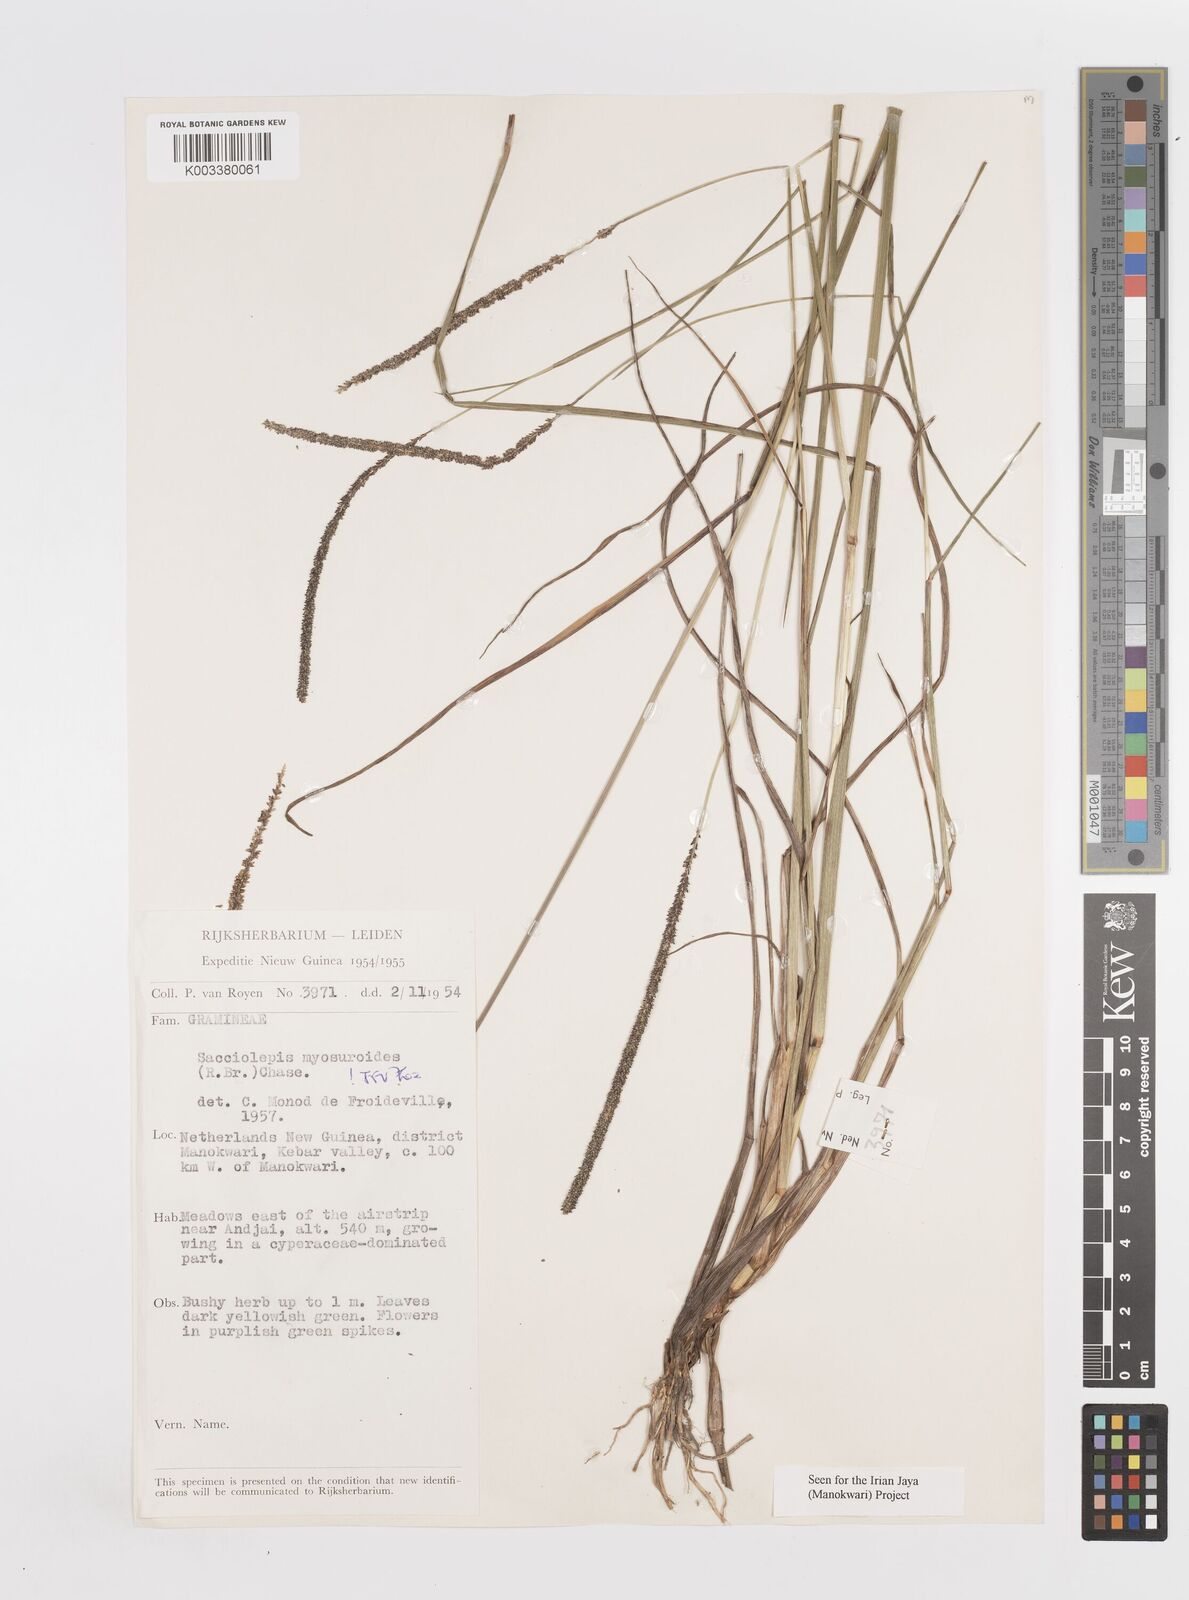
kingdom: Plantae
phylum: Tracheophyta
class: Liliopsida
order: Poales
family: Poaceae
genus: Sacciolepis
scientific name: Sacciolepis myosuroides
